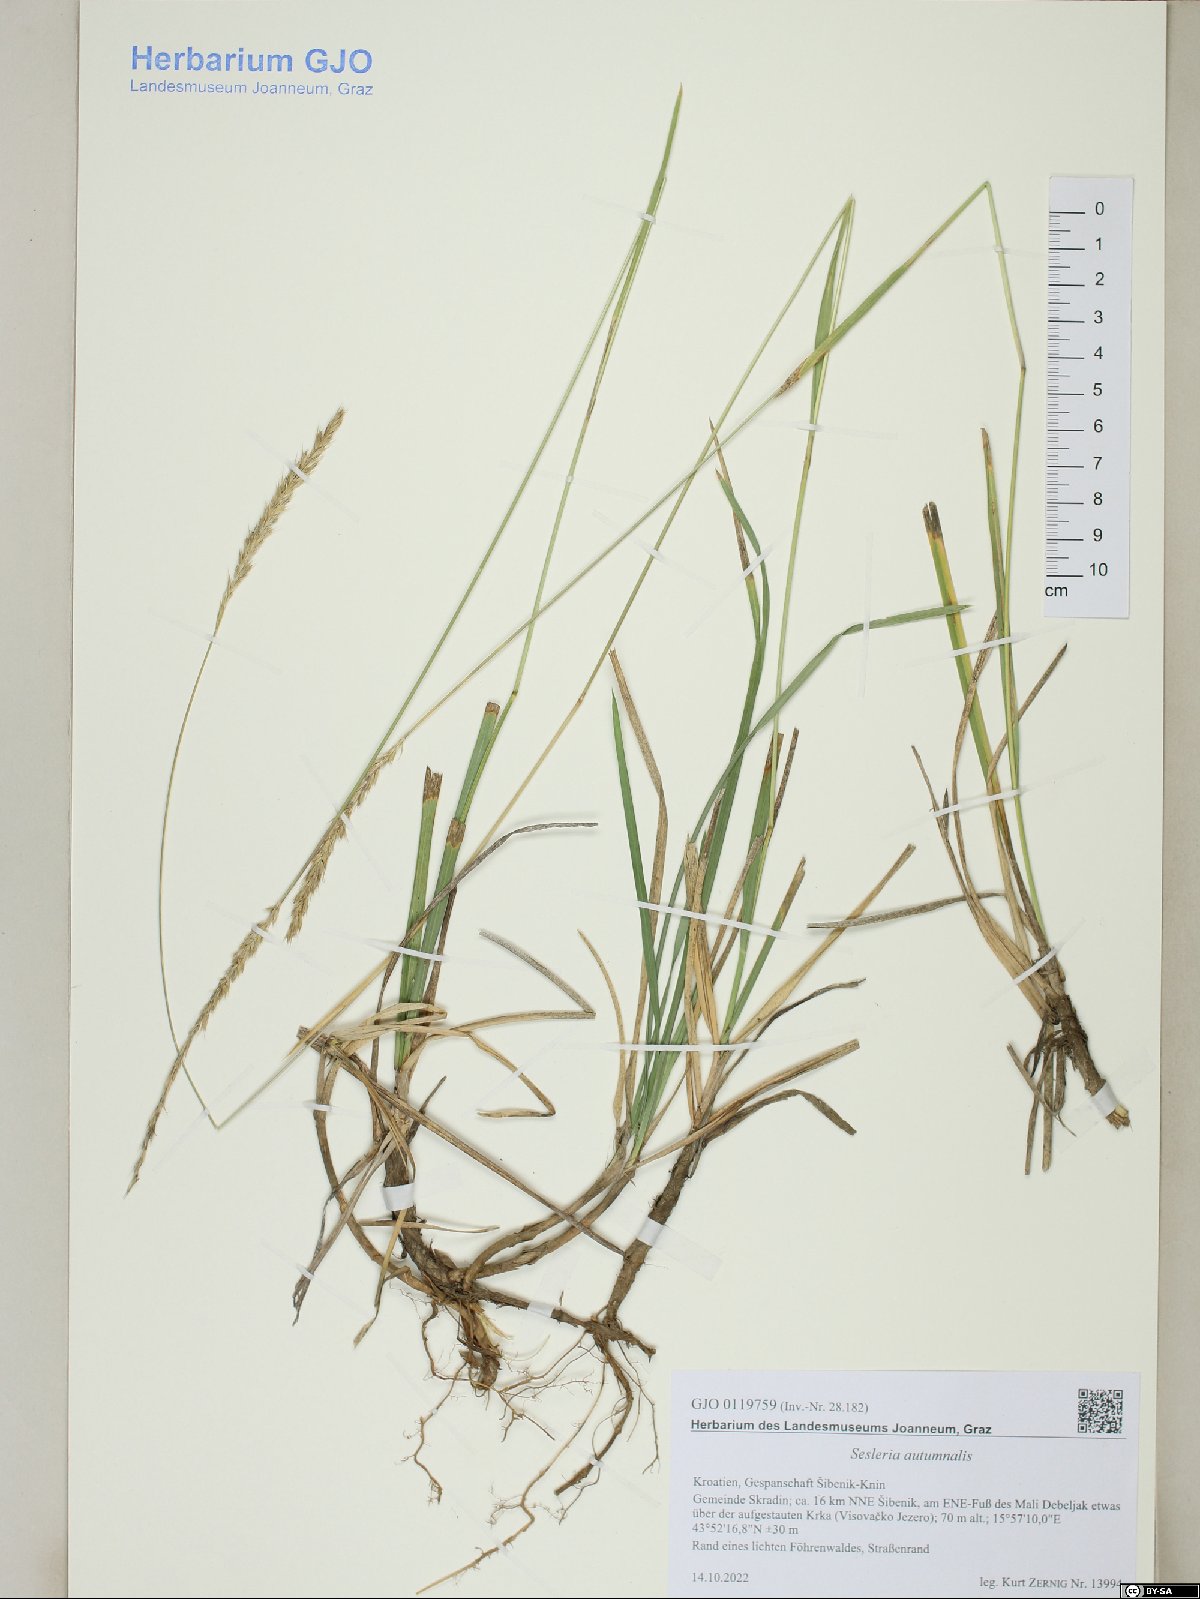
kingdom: Plantae
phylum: Tracheophyta
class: Liliopsida
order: Poales
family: Poaceae
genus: Sesleria
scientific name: Sesleria autumnalis
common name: Autumn moor grass
